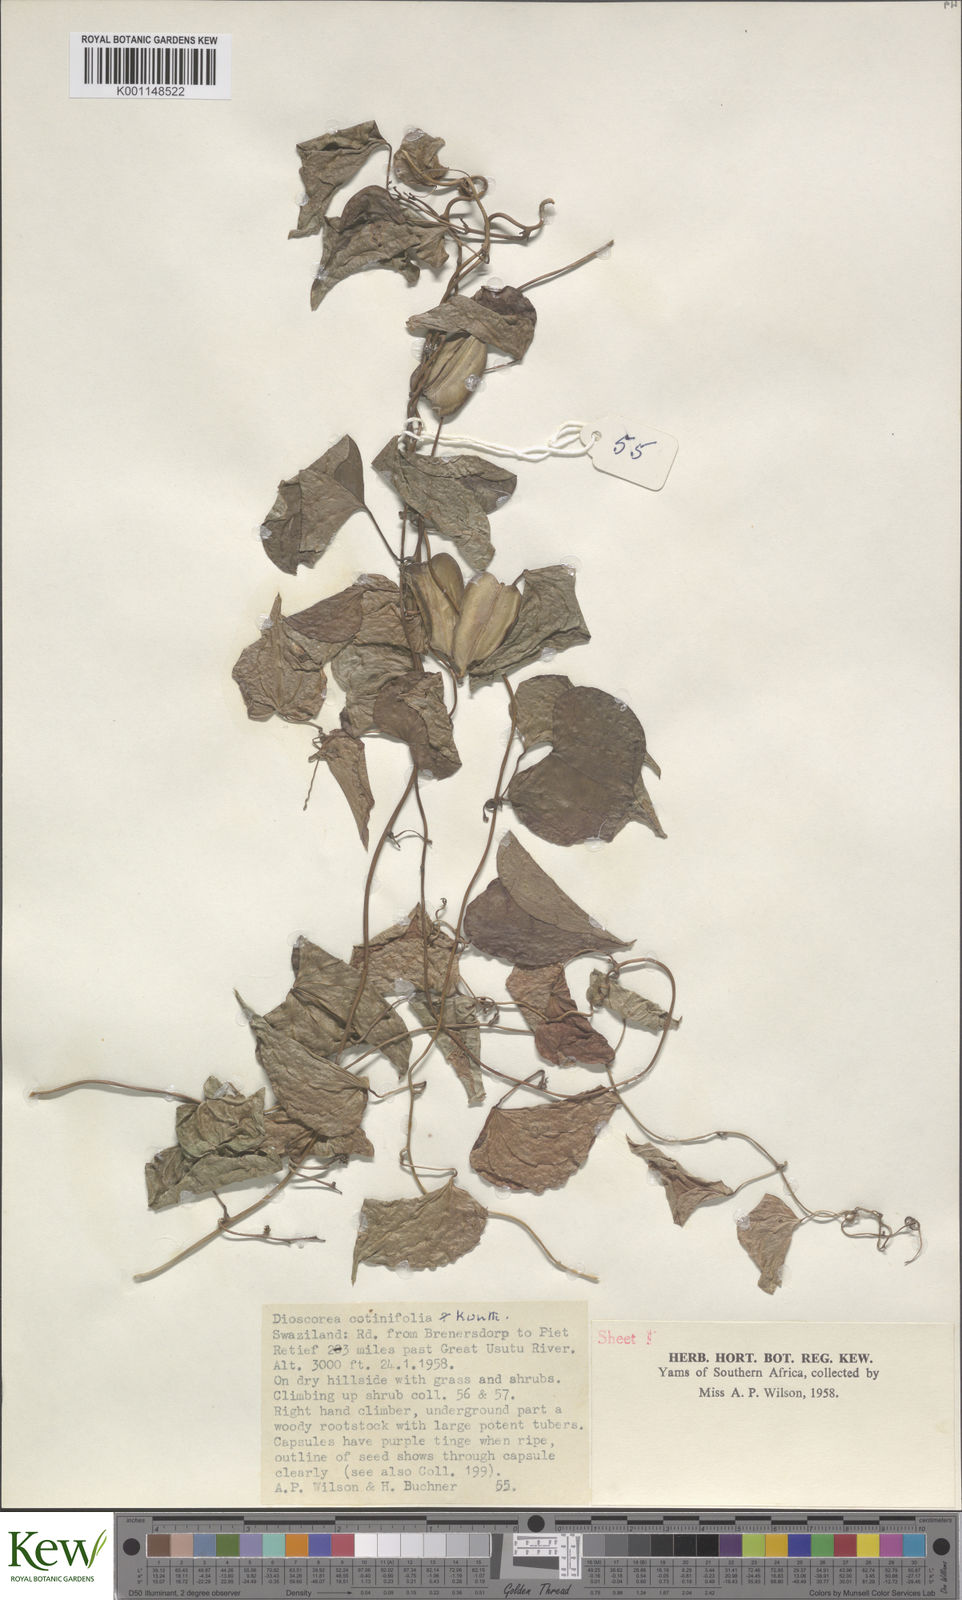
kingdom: Plantae
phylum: Tracheophyta
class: Liliopsida
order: Dioscoreales
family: Dioscoreaceae
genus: Dioscorea
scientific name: Dioscorea cotinifolia
